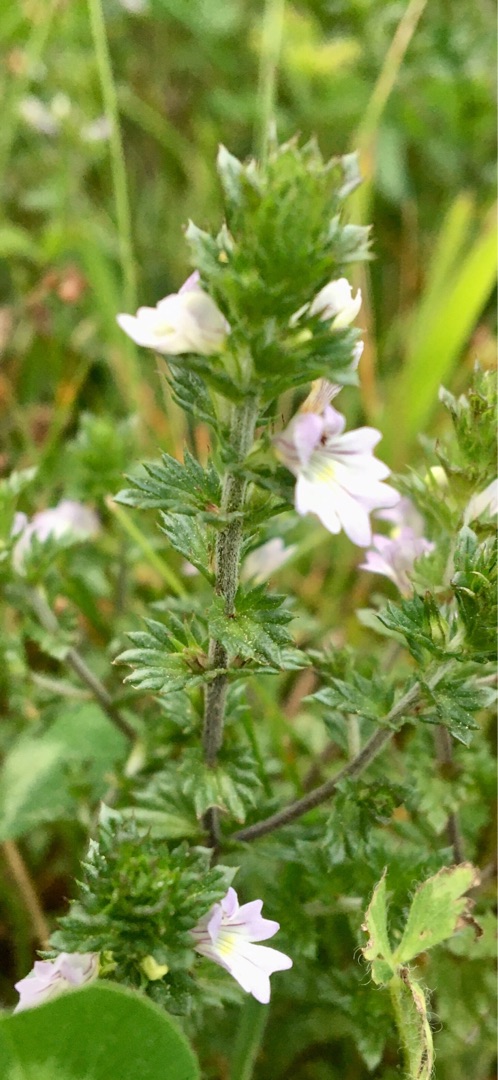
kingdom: Plantae
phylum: Tracheophyta
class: Magnoliopsida
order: Lamiales
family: Orobanchaceae
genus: Euphrasia
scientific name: Euphrasia stricta
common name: Spids øjentrøst
